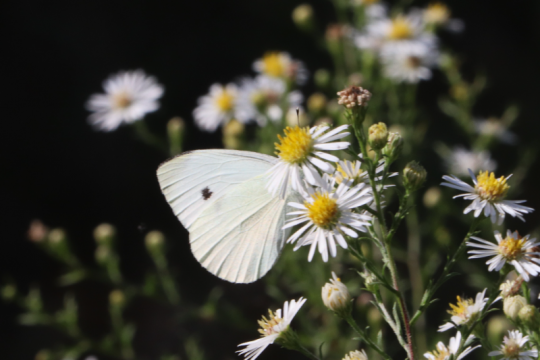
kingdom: Animalia
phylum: Arthropoda
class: Insecta
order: Lepidoptera
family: Pieridae
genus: Pieris
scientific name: Pieris rapae
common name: Cabbage White
